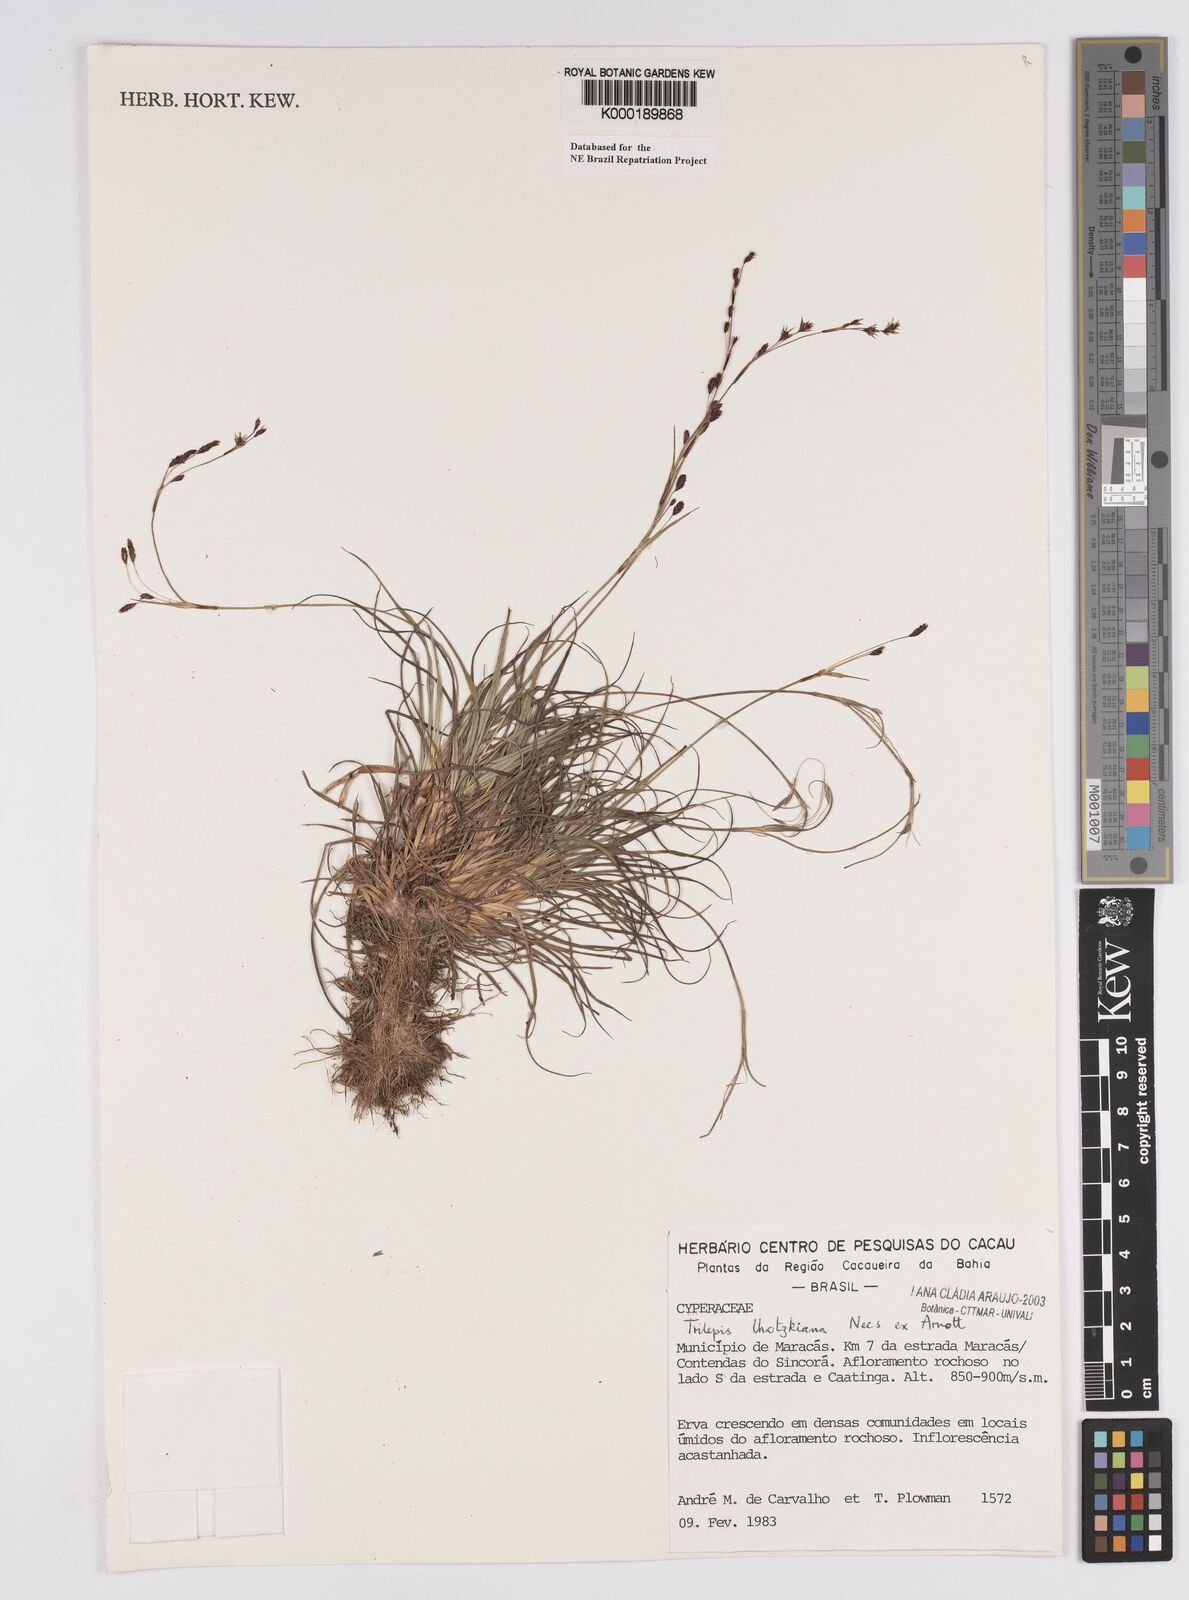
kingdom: Plantae
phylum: Tracheophyta
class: Liliopsida
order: Poales
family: Cyperaceae
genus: Trilepis
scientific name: Trilepis lhotzkiana
